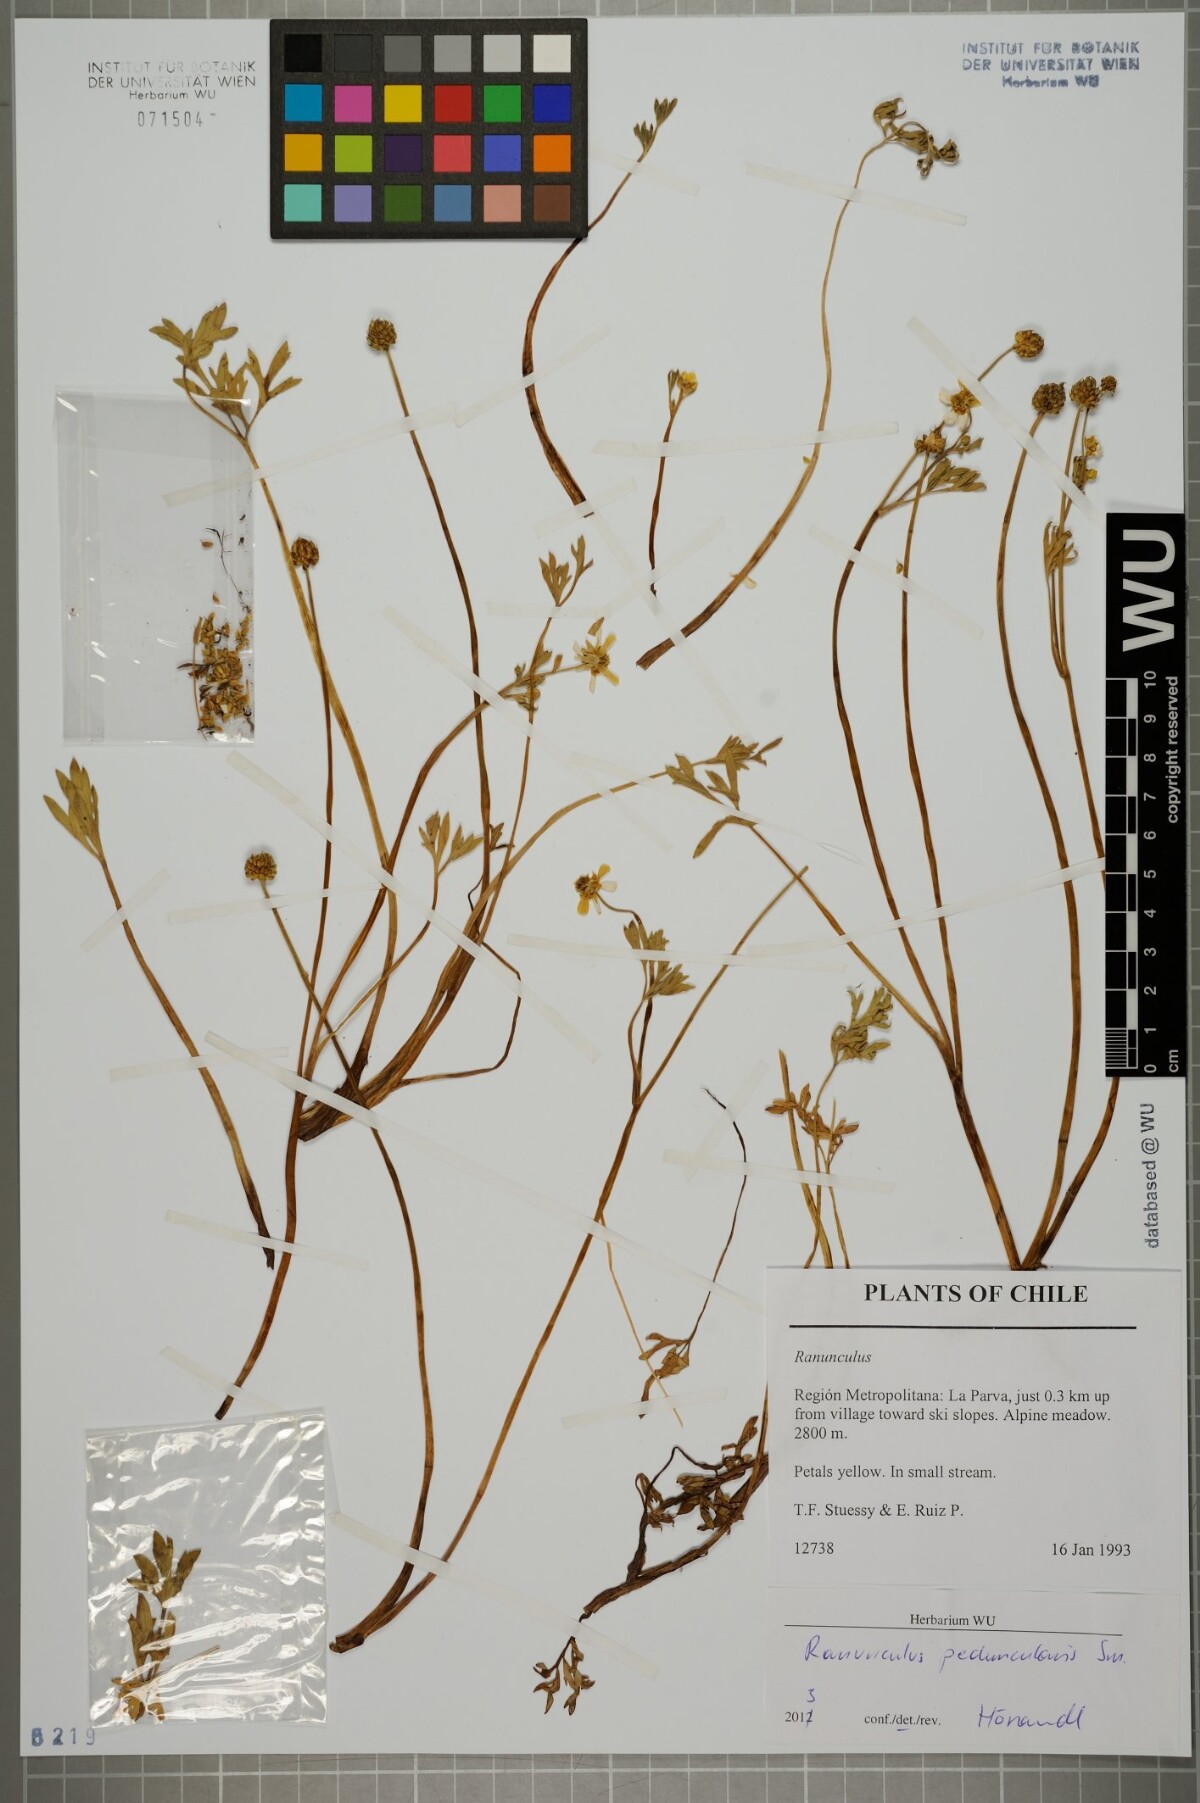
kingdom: Plantae
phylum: Tracheophyta
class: Magnoliopsida
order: Ranunculales
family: Ranunculaceae
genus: Ranunculus
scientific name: Ranunculus peduncularis
